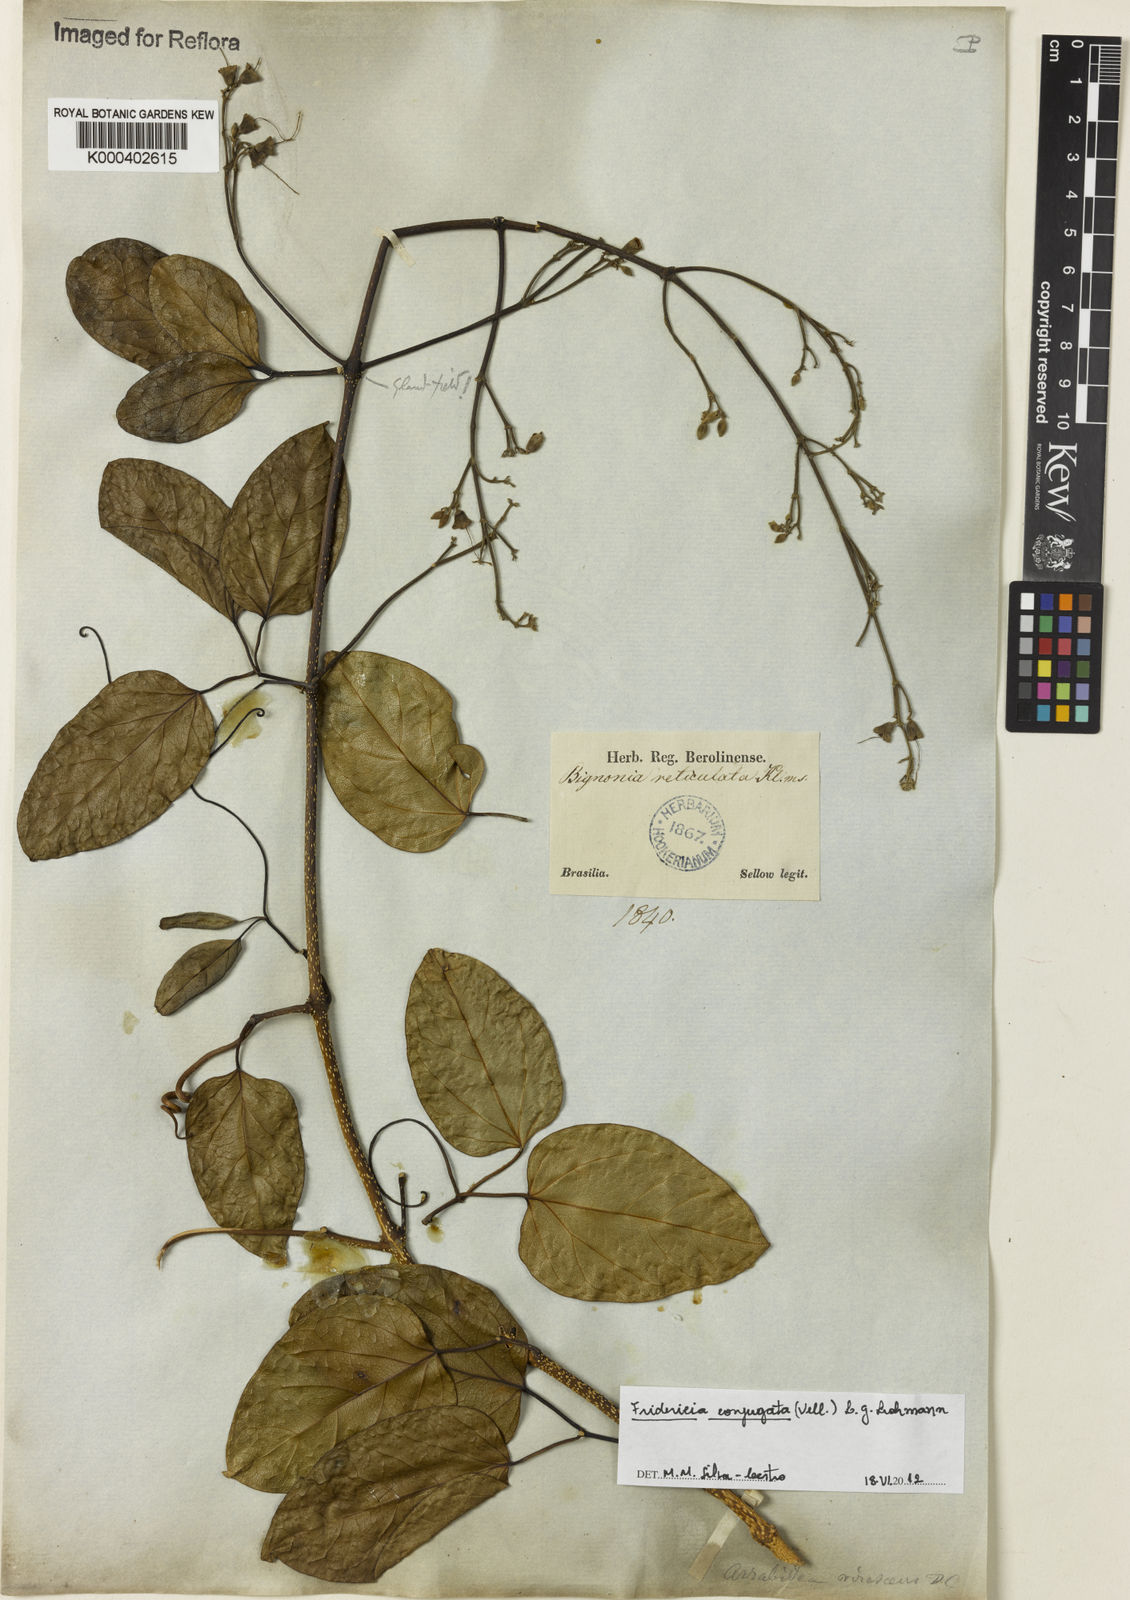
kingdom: Plantae
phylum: Tracheophyta
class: Magnoliopsida
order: Lamiales
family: Bignoniaceae
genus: Fridericia
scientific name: Fridericia conjugata
